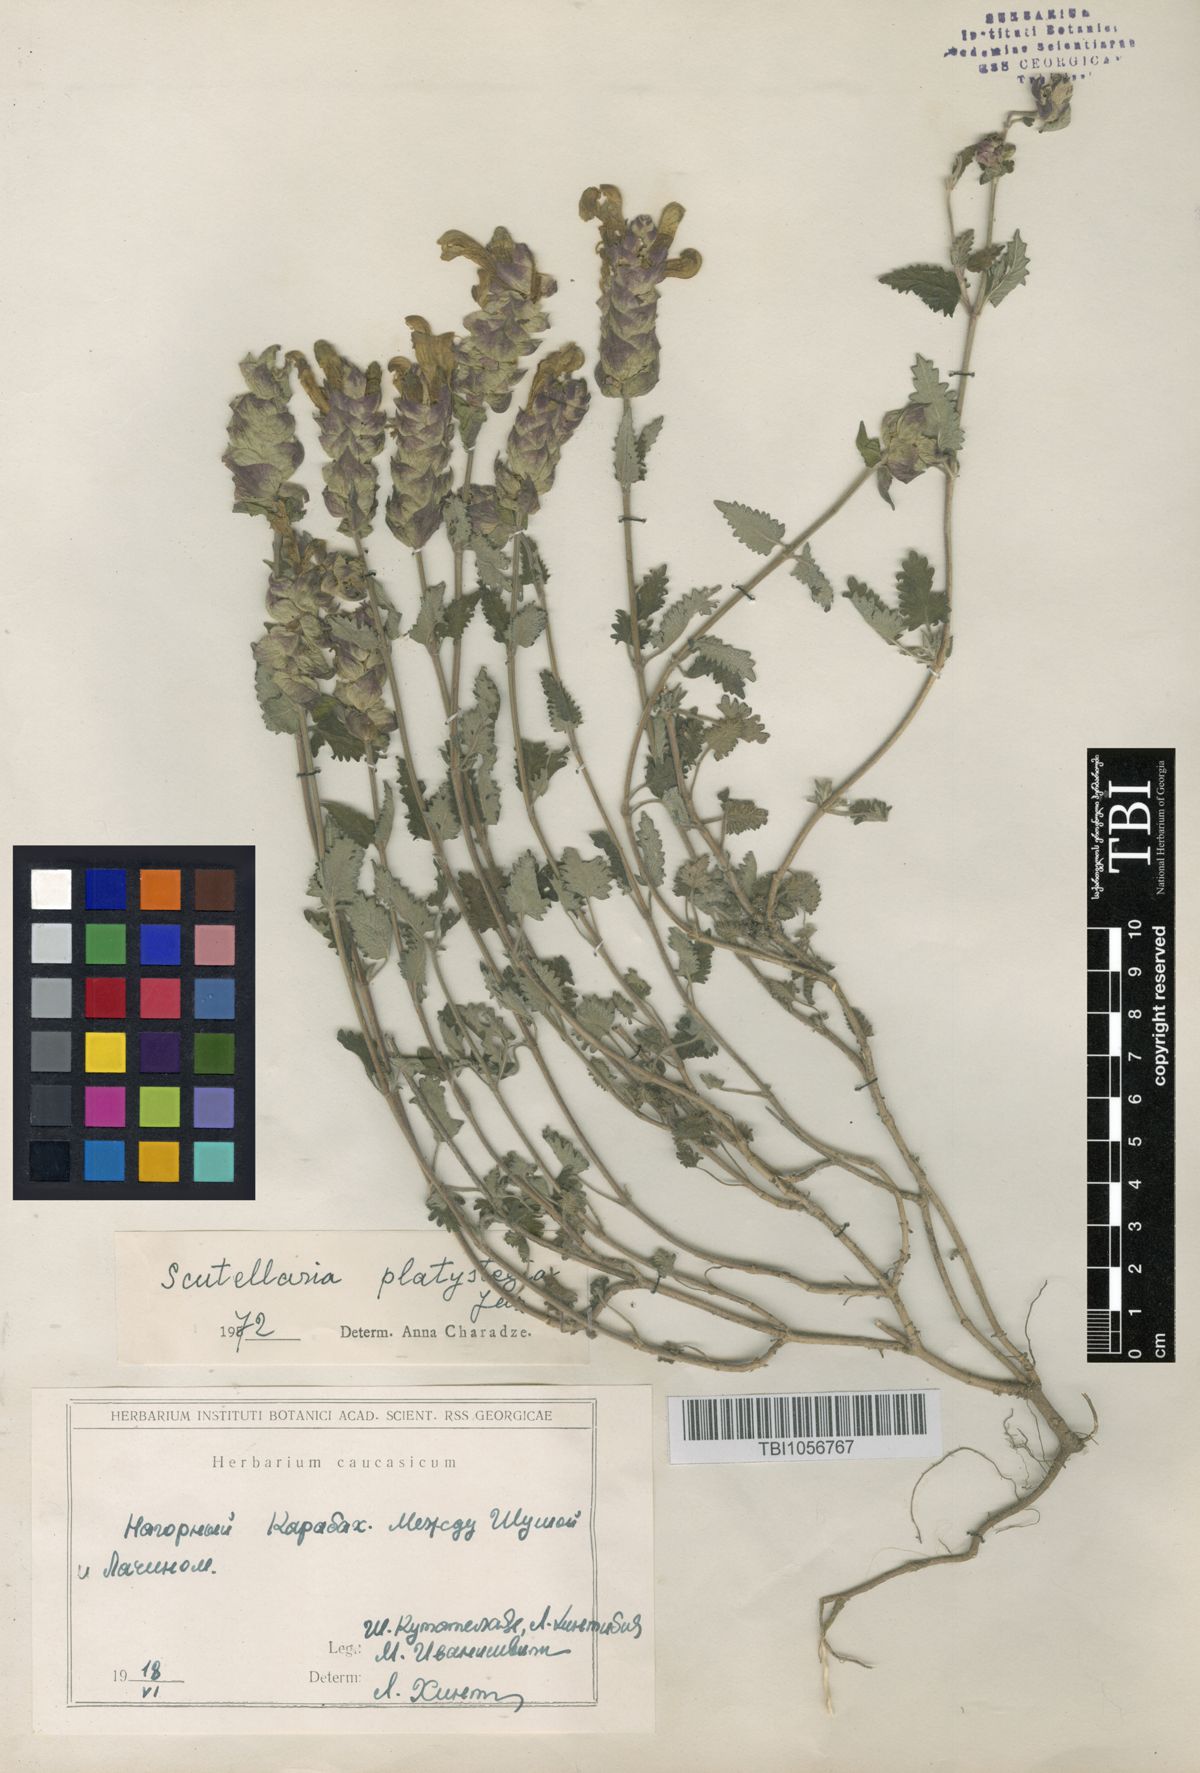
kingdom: Plantae
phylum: Tracheophyta
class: Magnoliopsida
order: Lamiales
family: Lamiaceae
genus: Scutellaria
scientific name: Scutellaria platystegia
